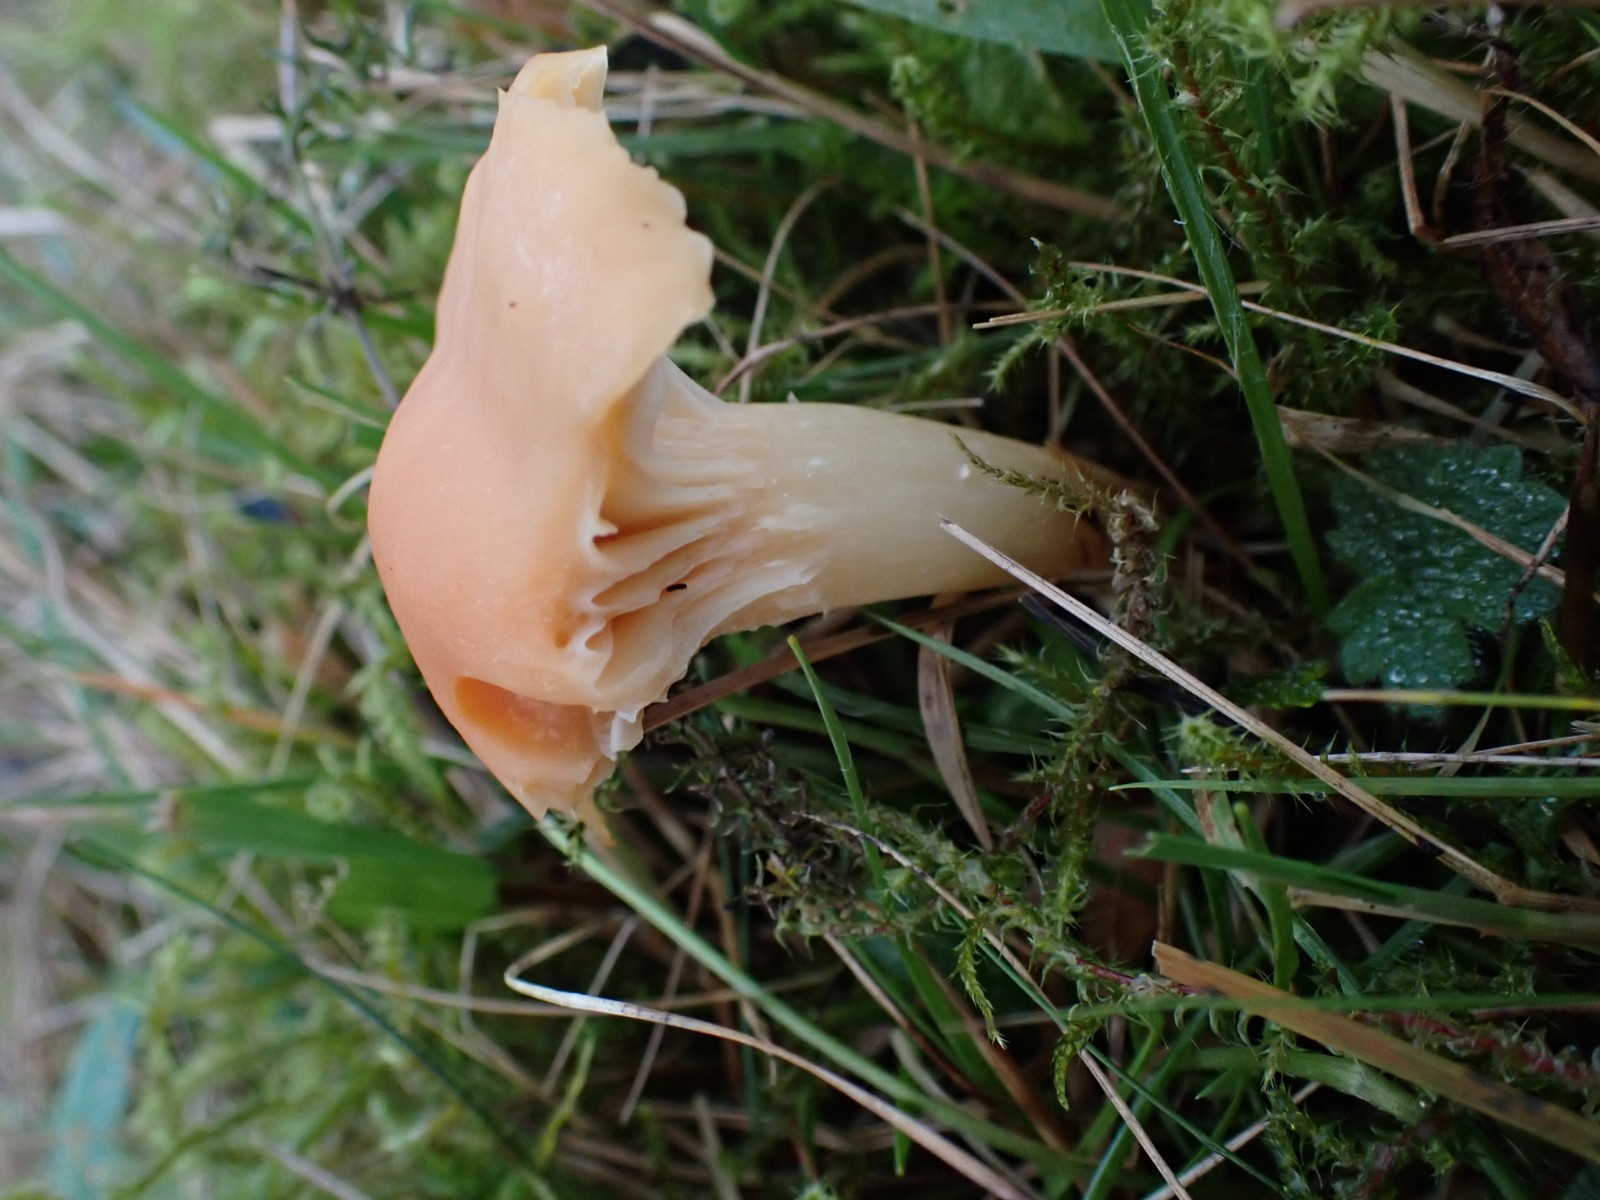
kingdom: Fungi
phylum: Basidiomycota
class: Agaricomycetes
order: Agaricales
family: Hygrophoraceae
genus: Cuphophyllus
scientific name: Cuphophyllus pratensis
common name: eng-vokshat
